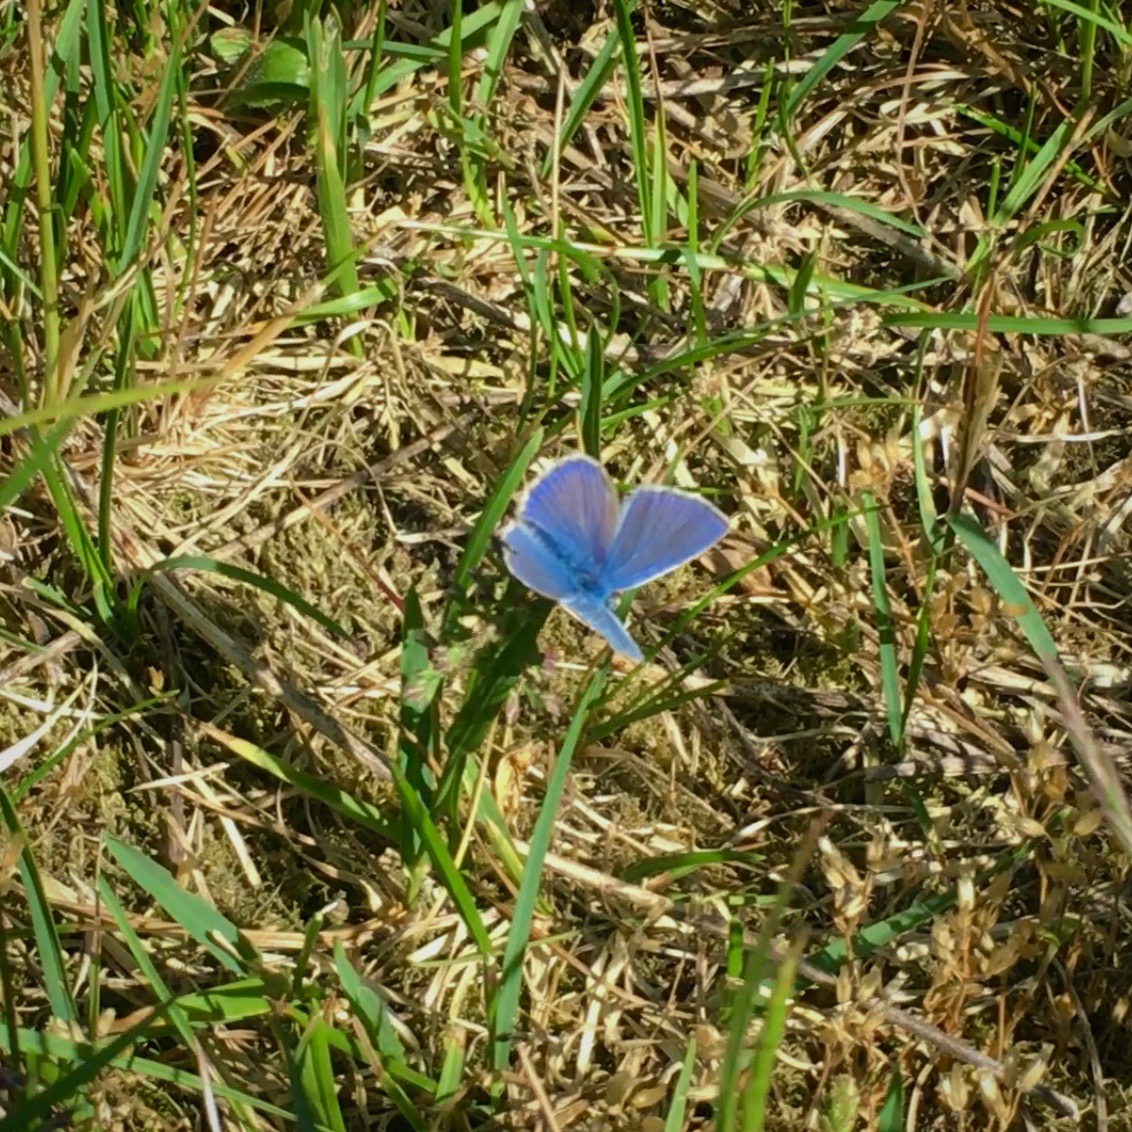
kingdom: Animalia
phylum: Arthropoda
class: Insecta
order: Lepidoptera
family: Lycaenidae
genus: Polyommatus
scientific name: Polyommatus icarus
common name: Almindelig blåfugl
